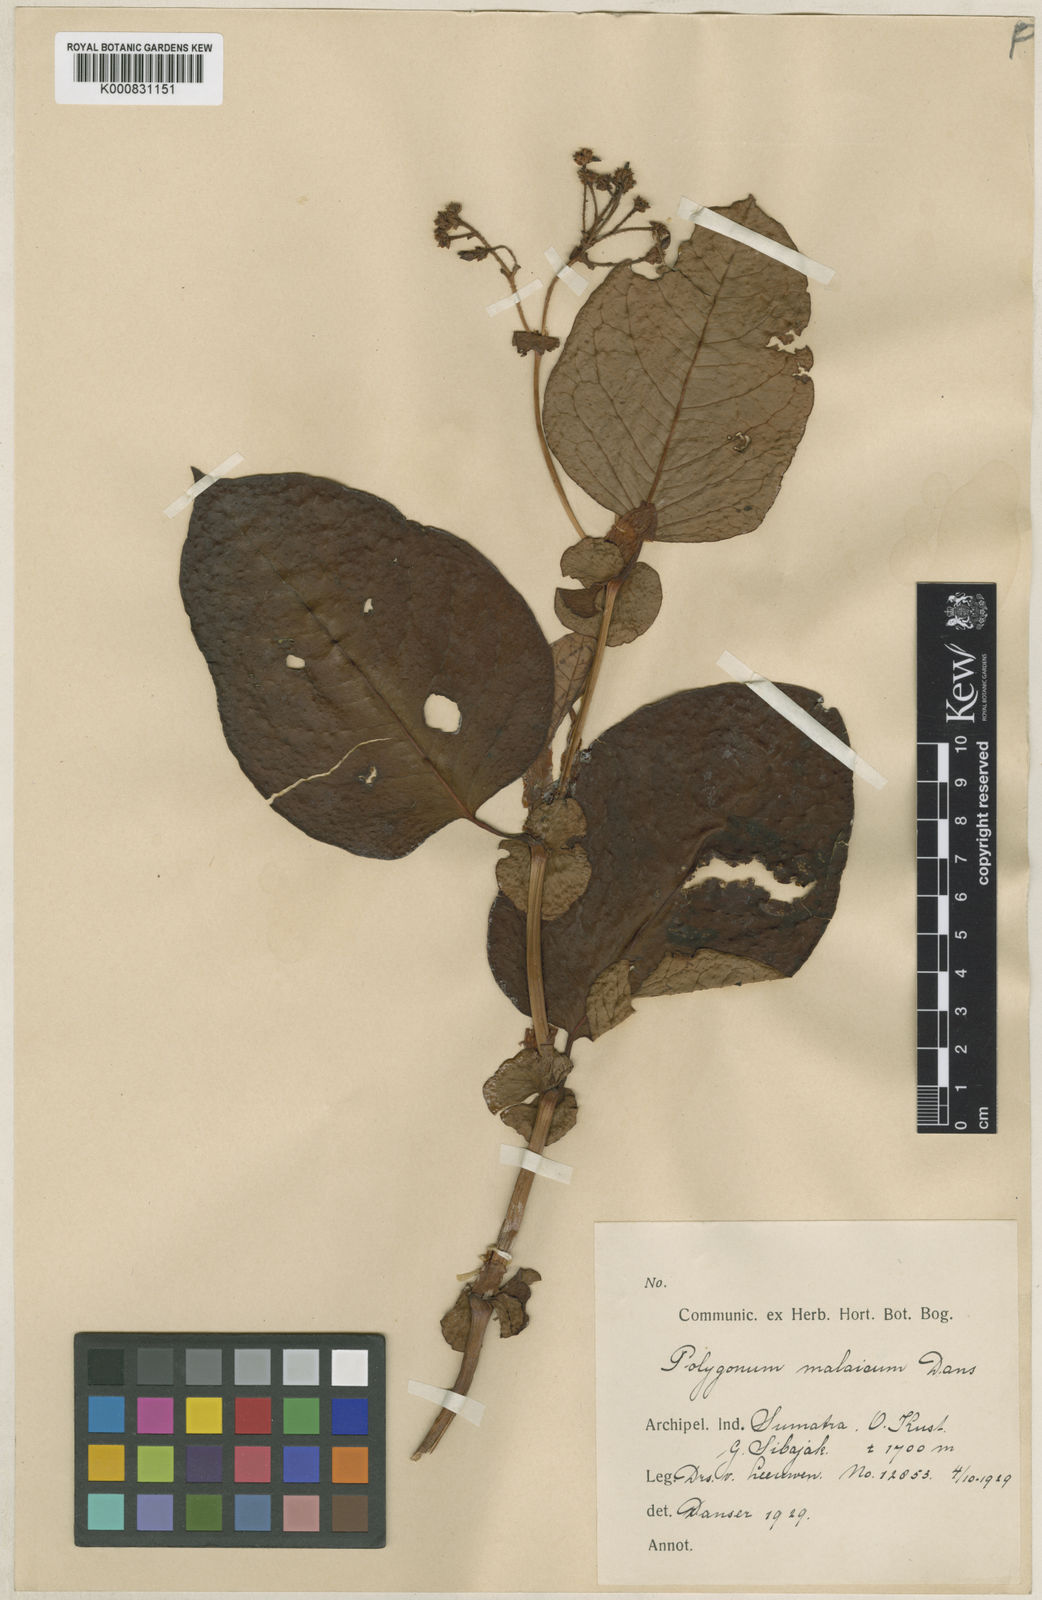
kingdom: Plantae
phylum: Tracheophyta
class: Magnoliopsida
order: Caryophyllales
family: Polygonaceae
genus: Persicaria
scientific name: Persicaria
